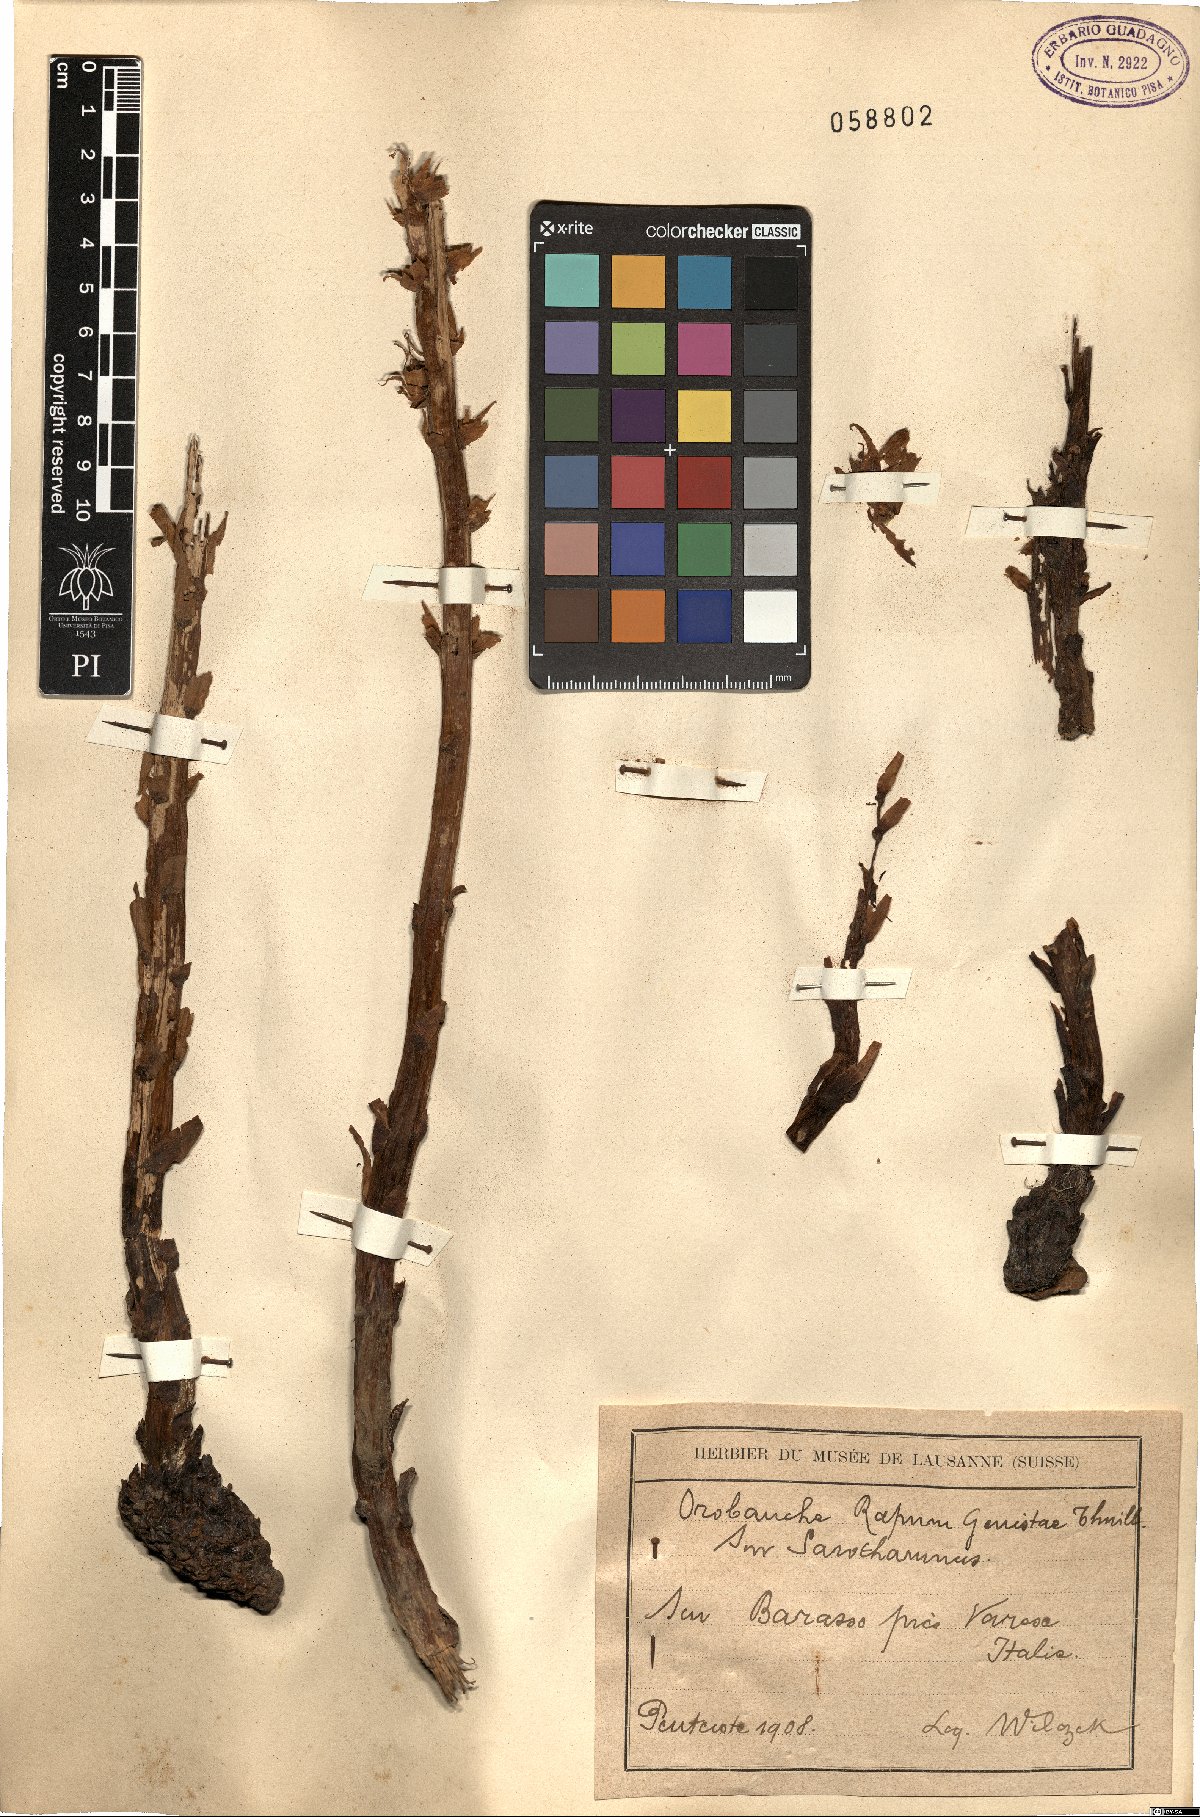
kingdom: Plantae
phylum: Tracheophyta
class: Magnoliopsida
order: Lamiales
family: Orobanchaceae
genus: Orobanche
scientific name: Orobanche rapum-genistae
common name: Greater broomrape
